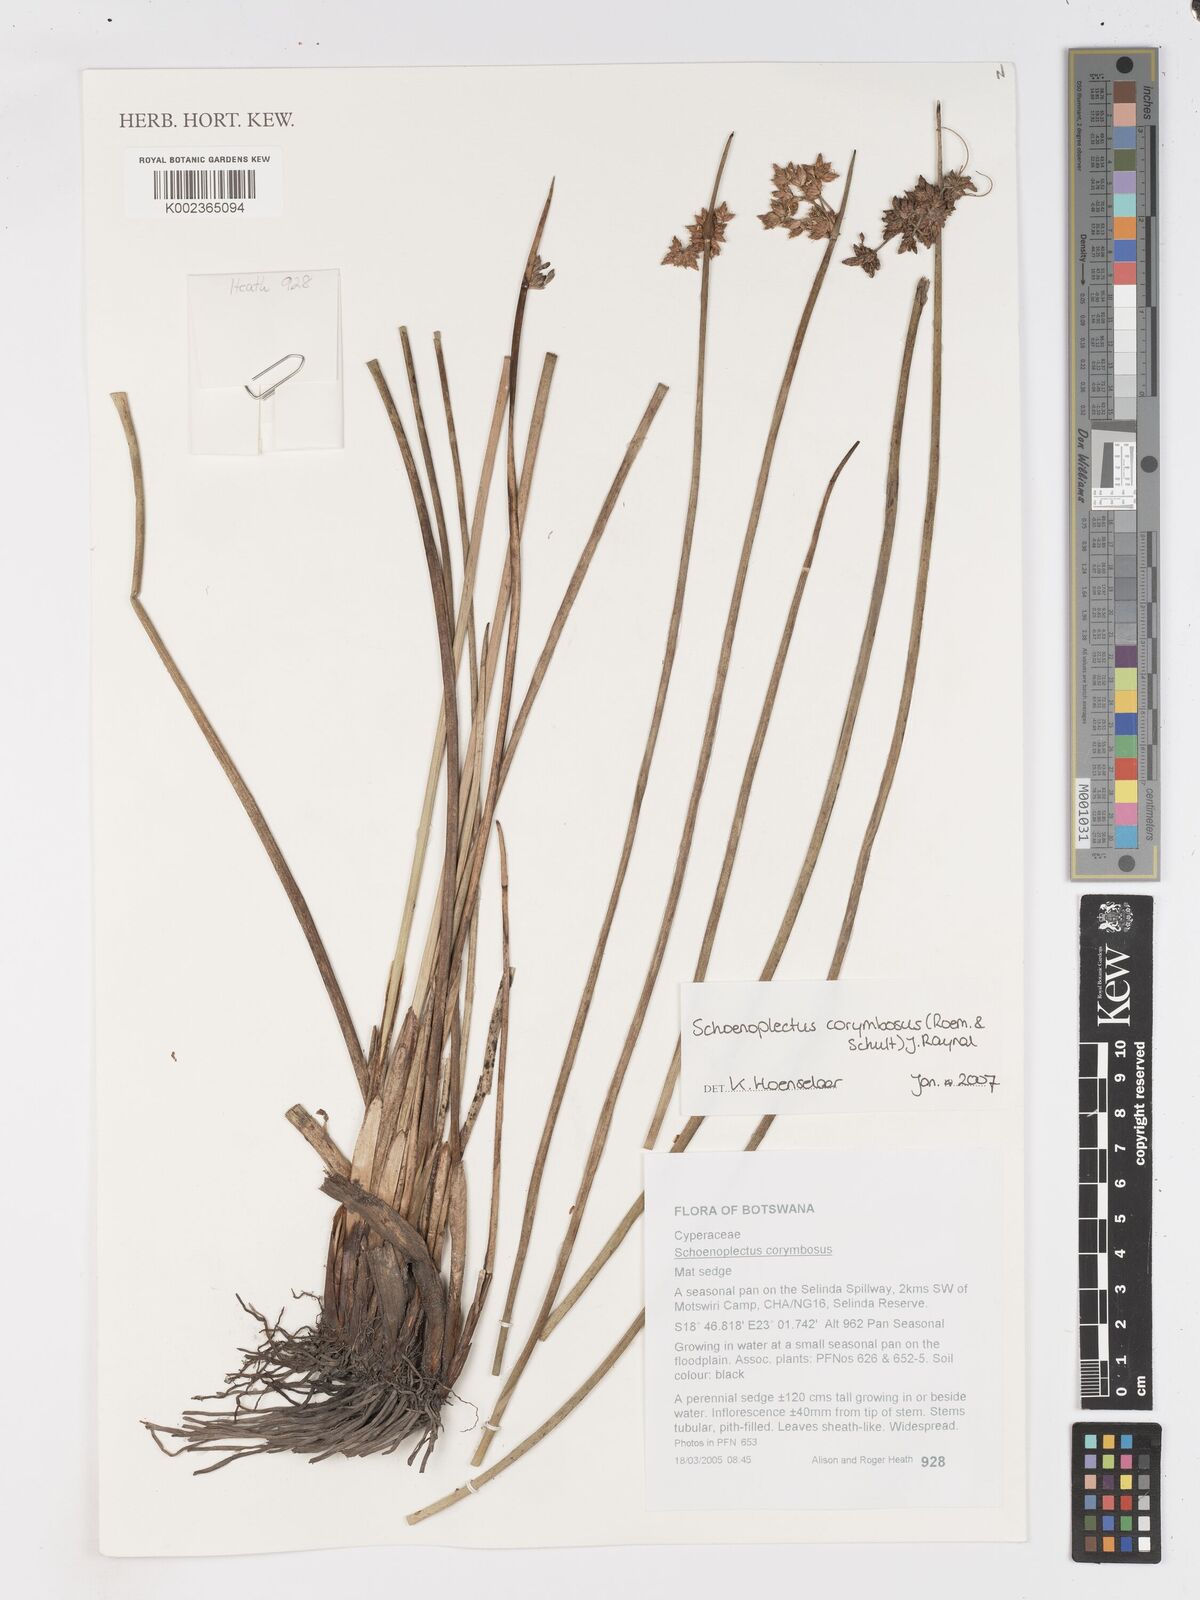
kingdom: Plantae
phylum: Tracheophyta
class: Liliopsida
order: Poales
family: Cyperaceae
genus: Schoenoplectiella
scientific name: Schoenoplectiella corymbosa
